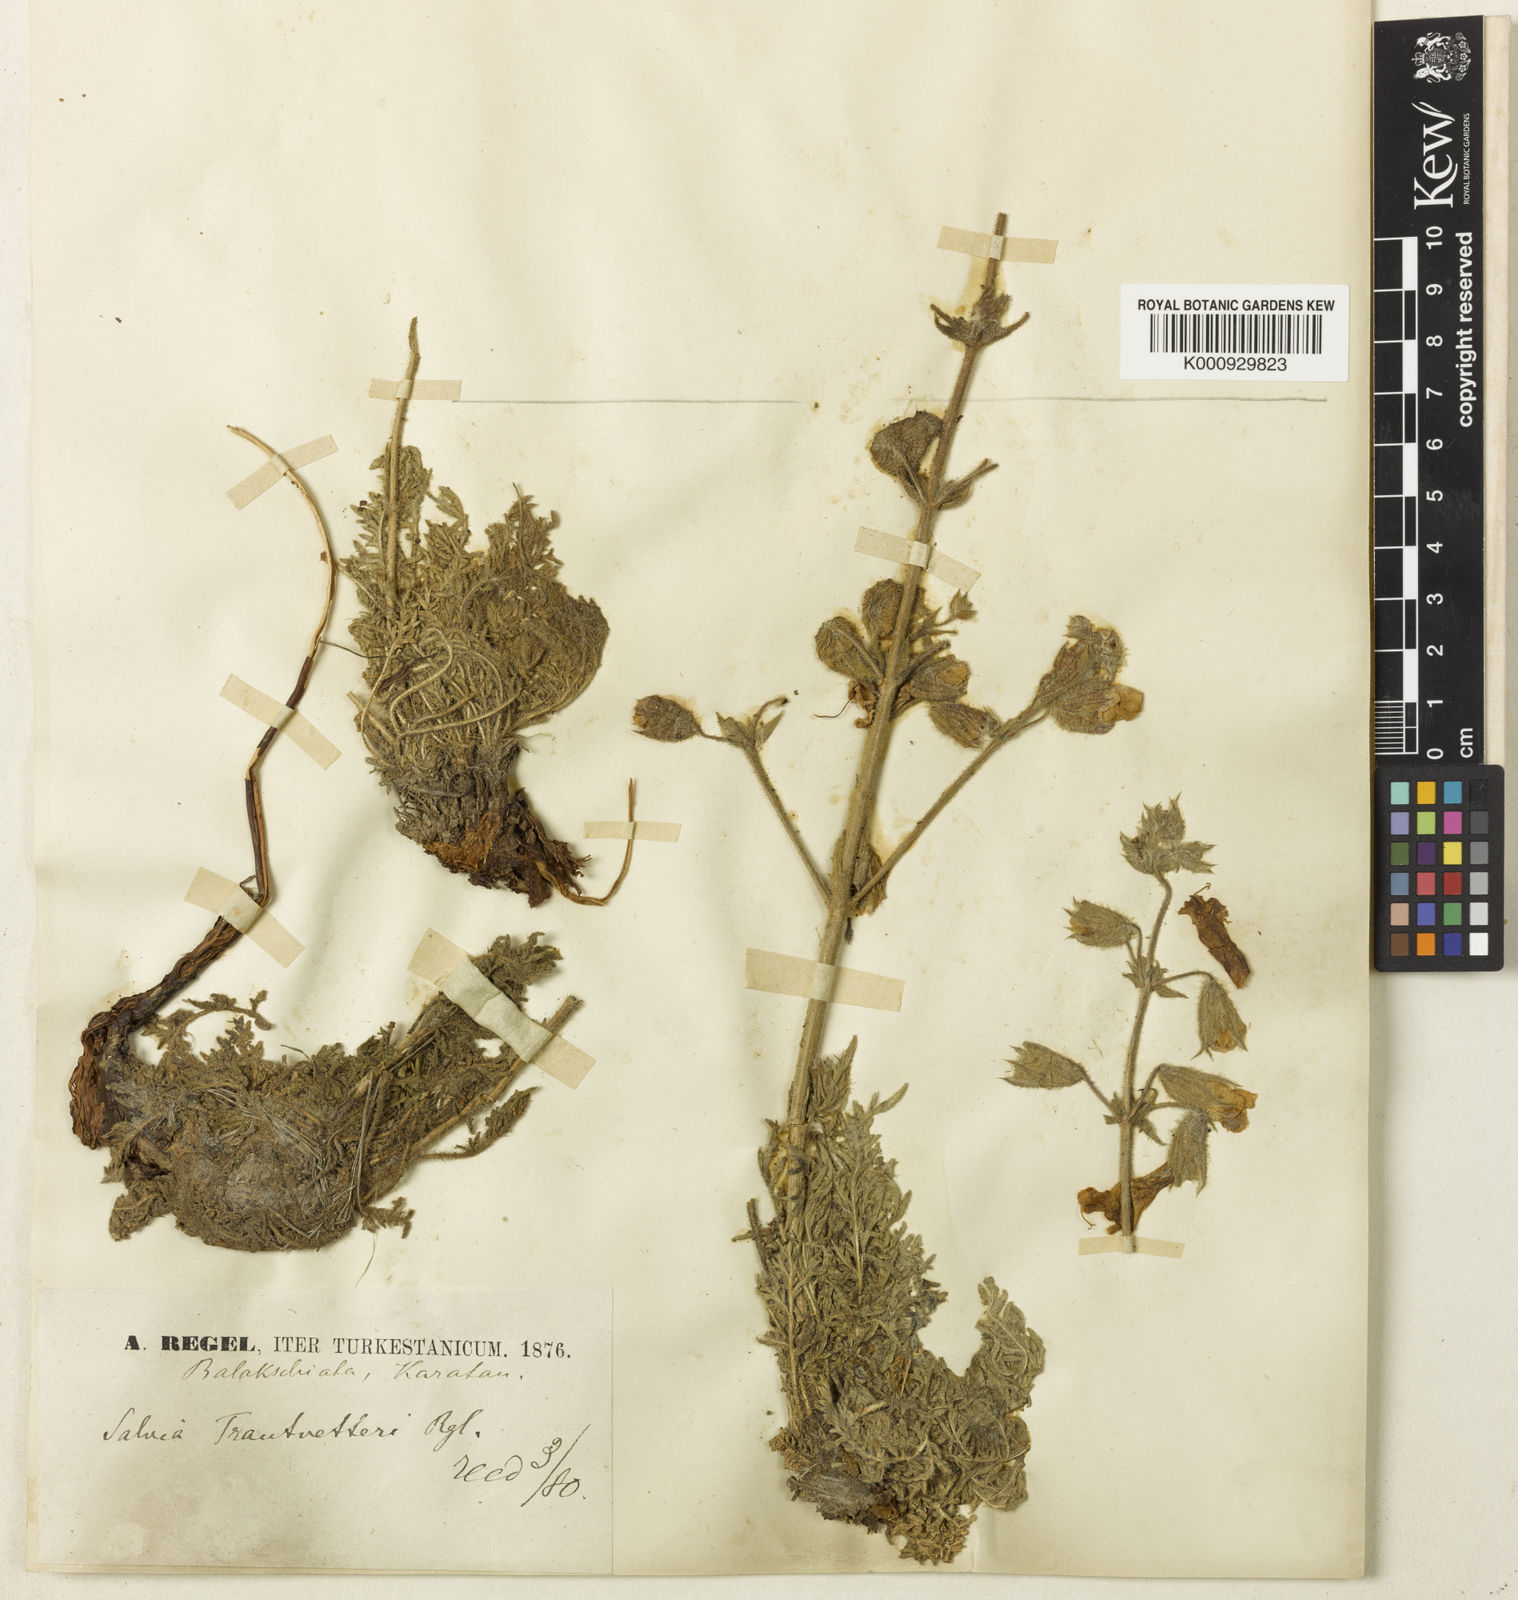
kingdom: Plantae
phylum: Tracheophyta
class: Magnoliopsida
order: Lamiales
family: Lamiaceae
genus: Salvia
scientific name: Salvia trautvetteri
